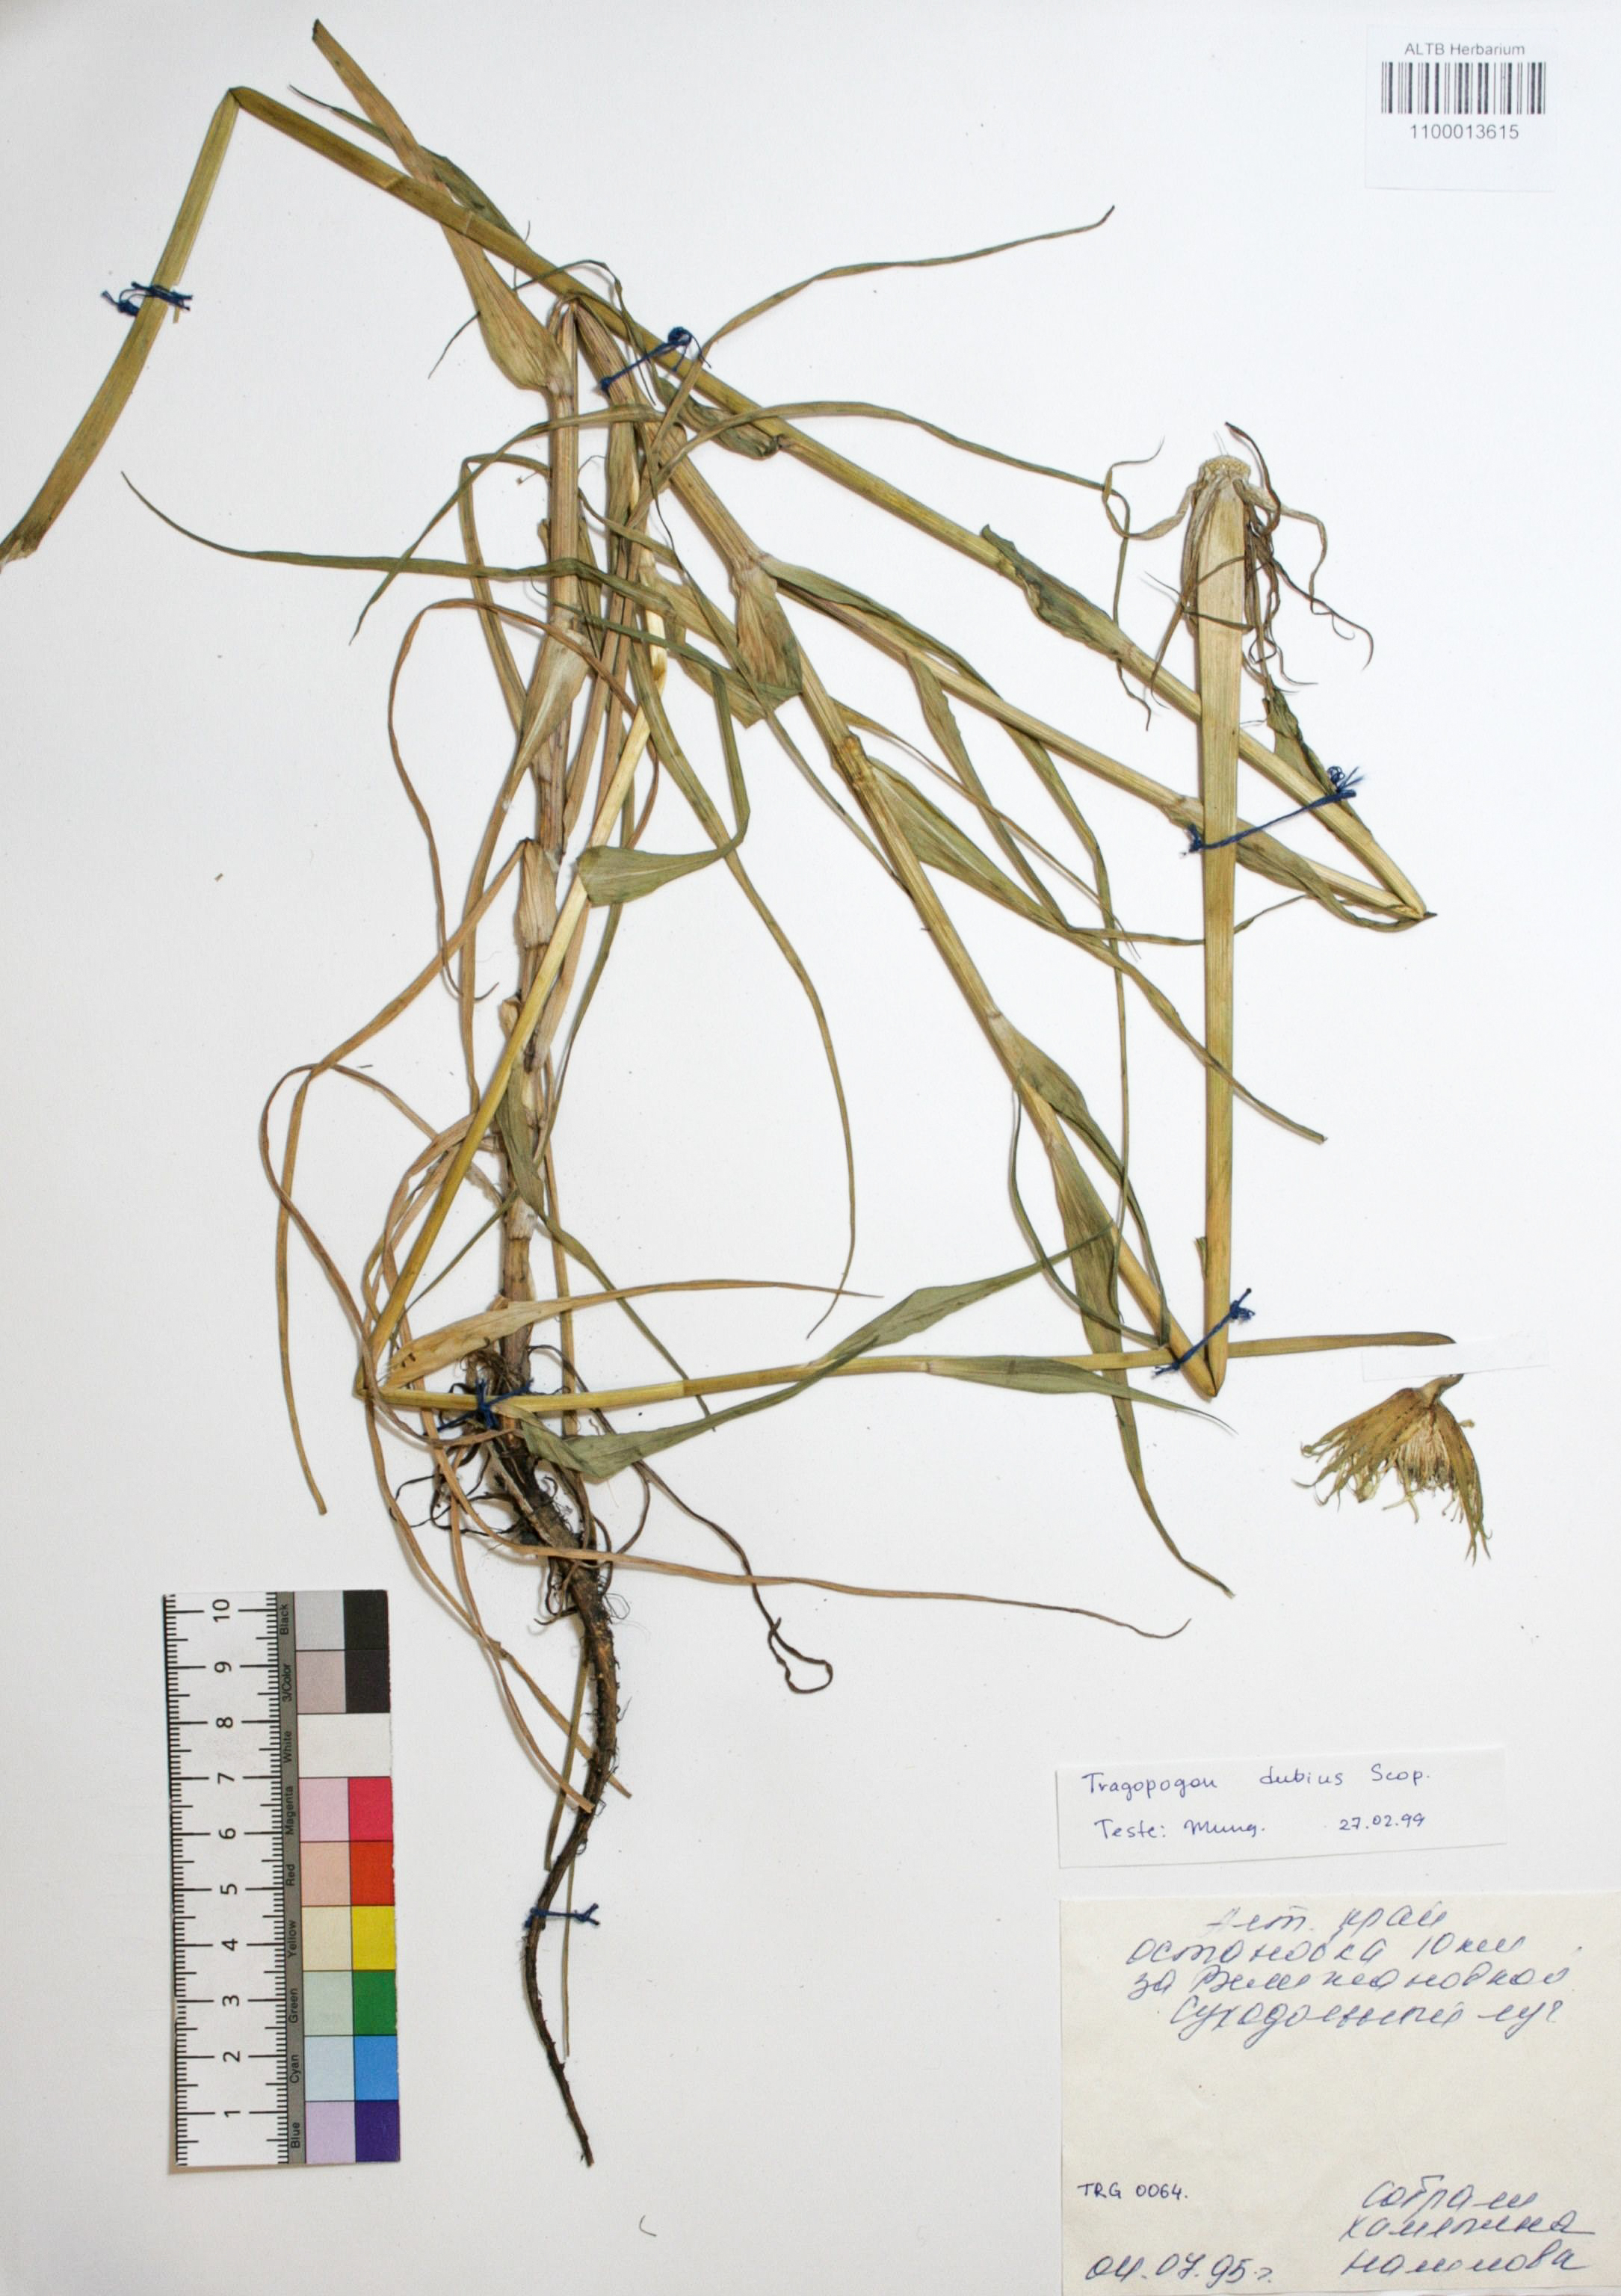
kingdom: Plantae
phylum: Tracheophyta
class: Magnoliopsida
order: Asterales
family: Asteraceae
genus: Tragopogon
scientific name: Tragopogon dubius
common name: Yellow salsify
